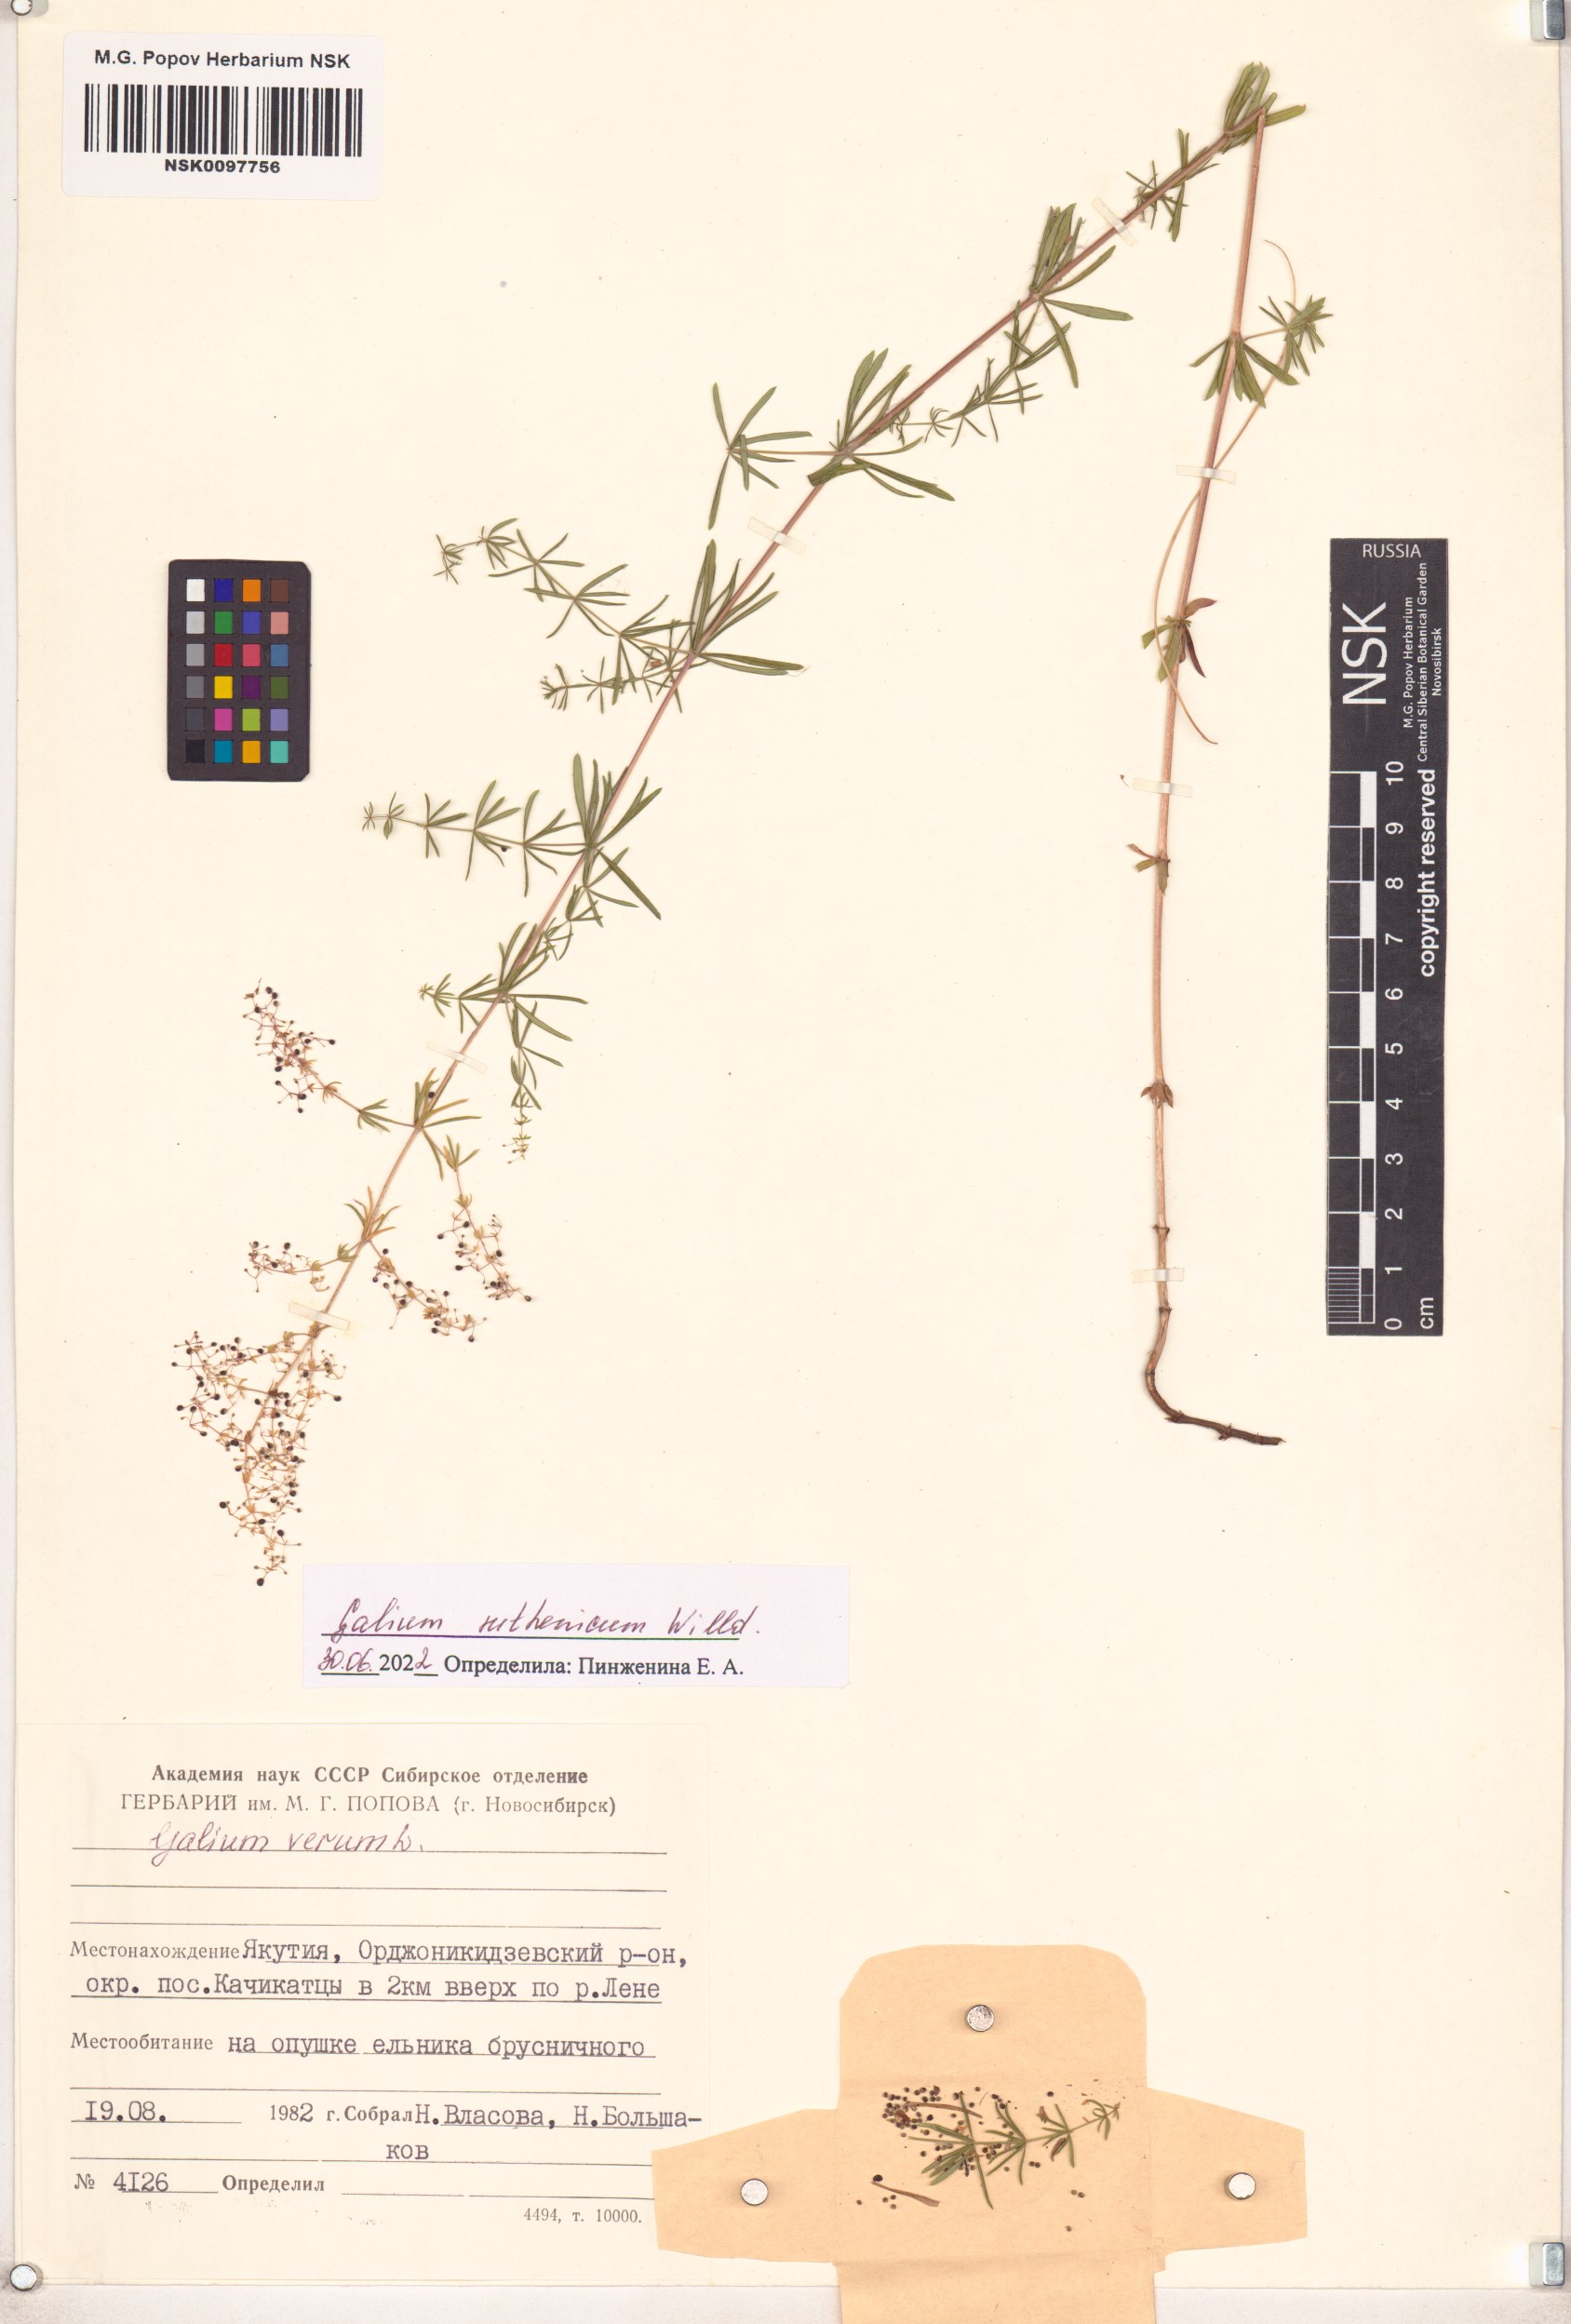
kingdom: Plantae
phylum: Tracheophyta
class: Magnoliopsida
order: Gentianales
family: Rubiaceae
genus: Galium
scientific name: Galium verum
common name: Lady's bedstraw
